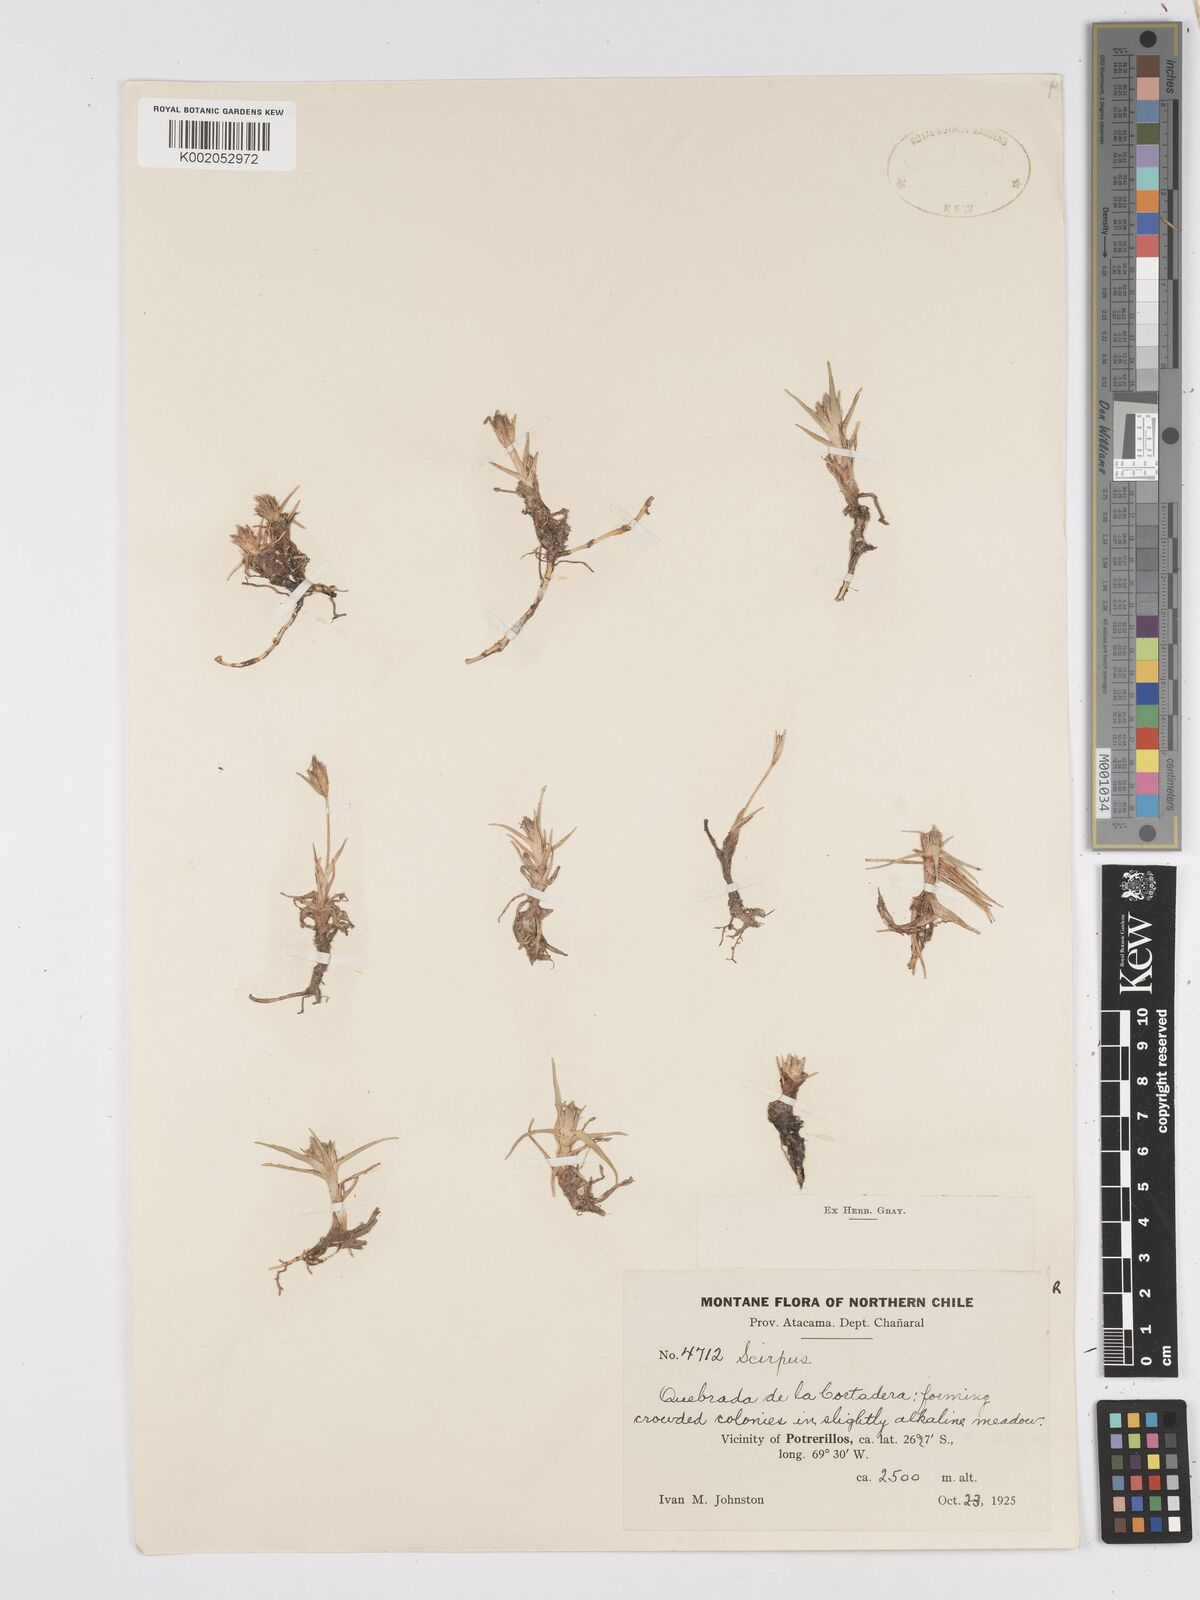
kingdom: Plantae
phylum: Tracheophyta
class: Liliopsida
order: Poales
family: Cyperaceae
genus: Scirpus
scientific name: Scirpus
